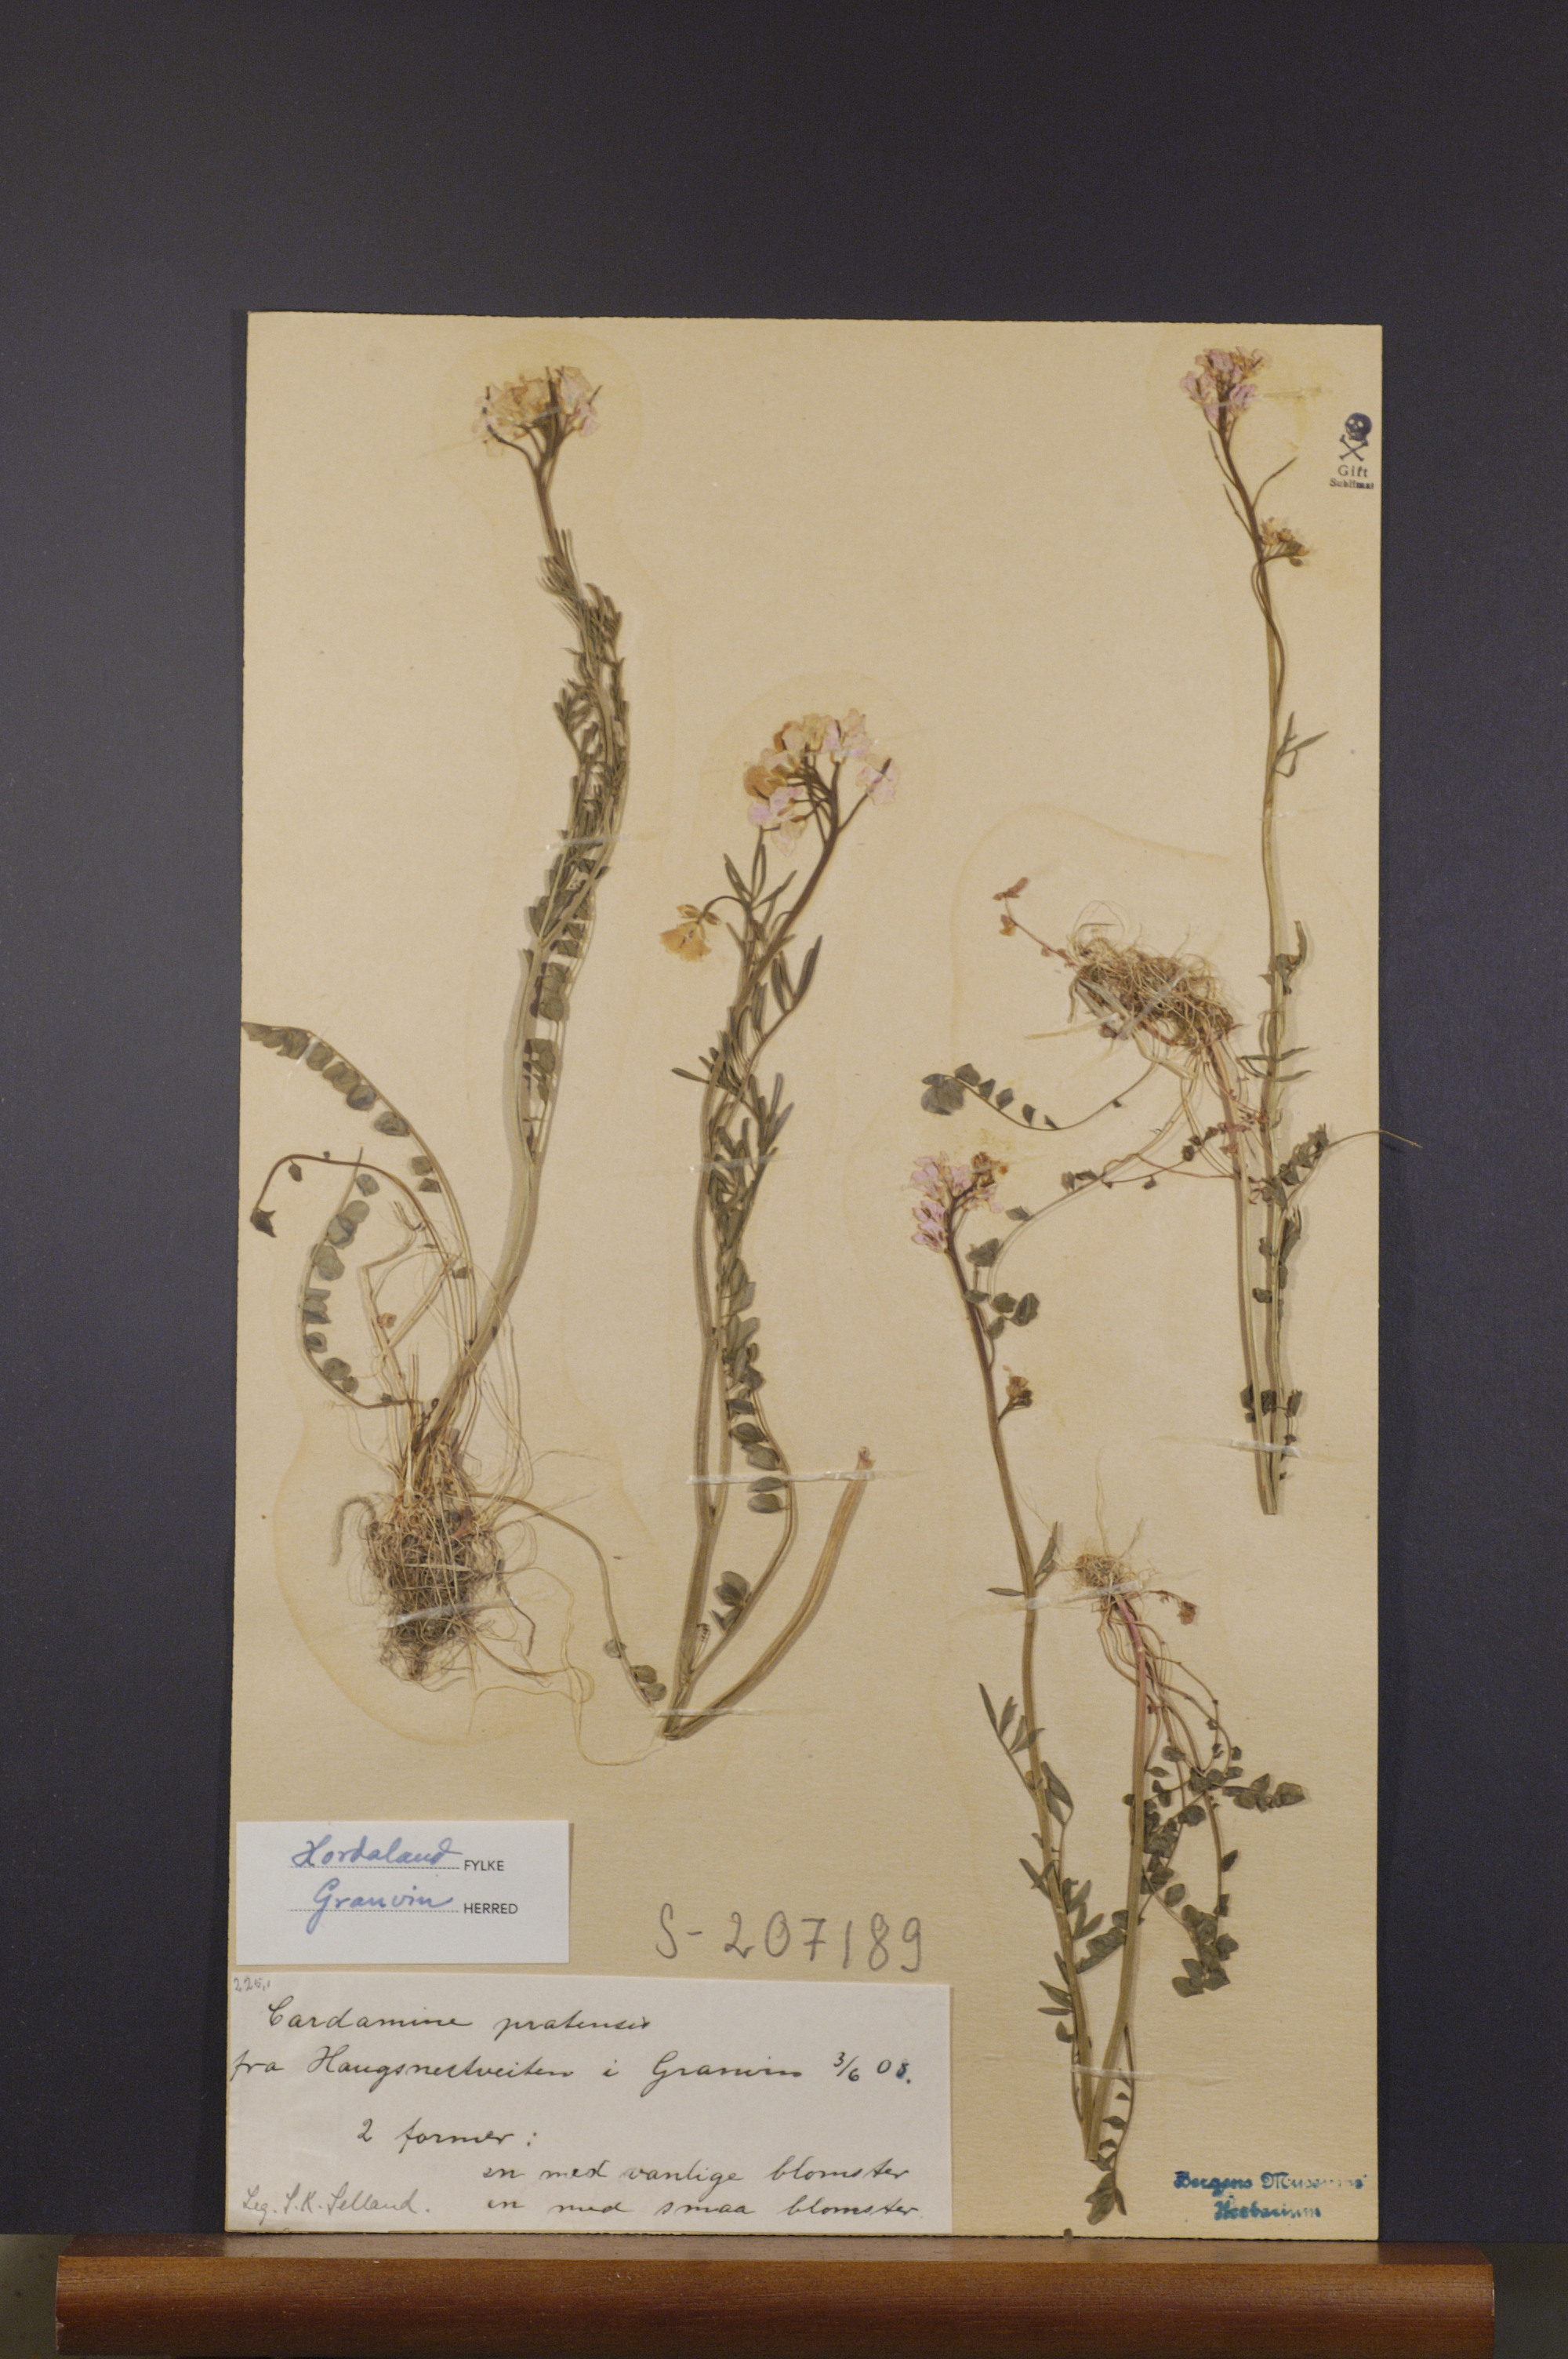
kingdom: Plantae
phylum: Tracheophyta
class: Magnoliopsida
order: Brassicales
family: Brassicaceae
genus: Cardamine
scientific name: Cardamine pratensis
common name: Cuckoo flower
